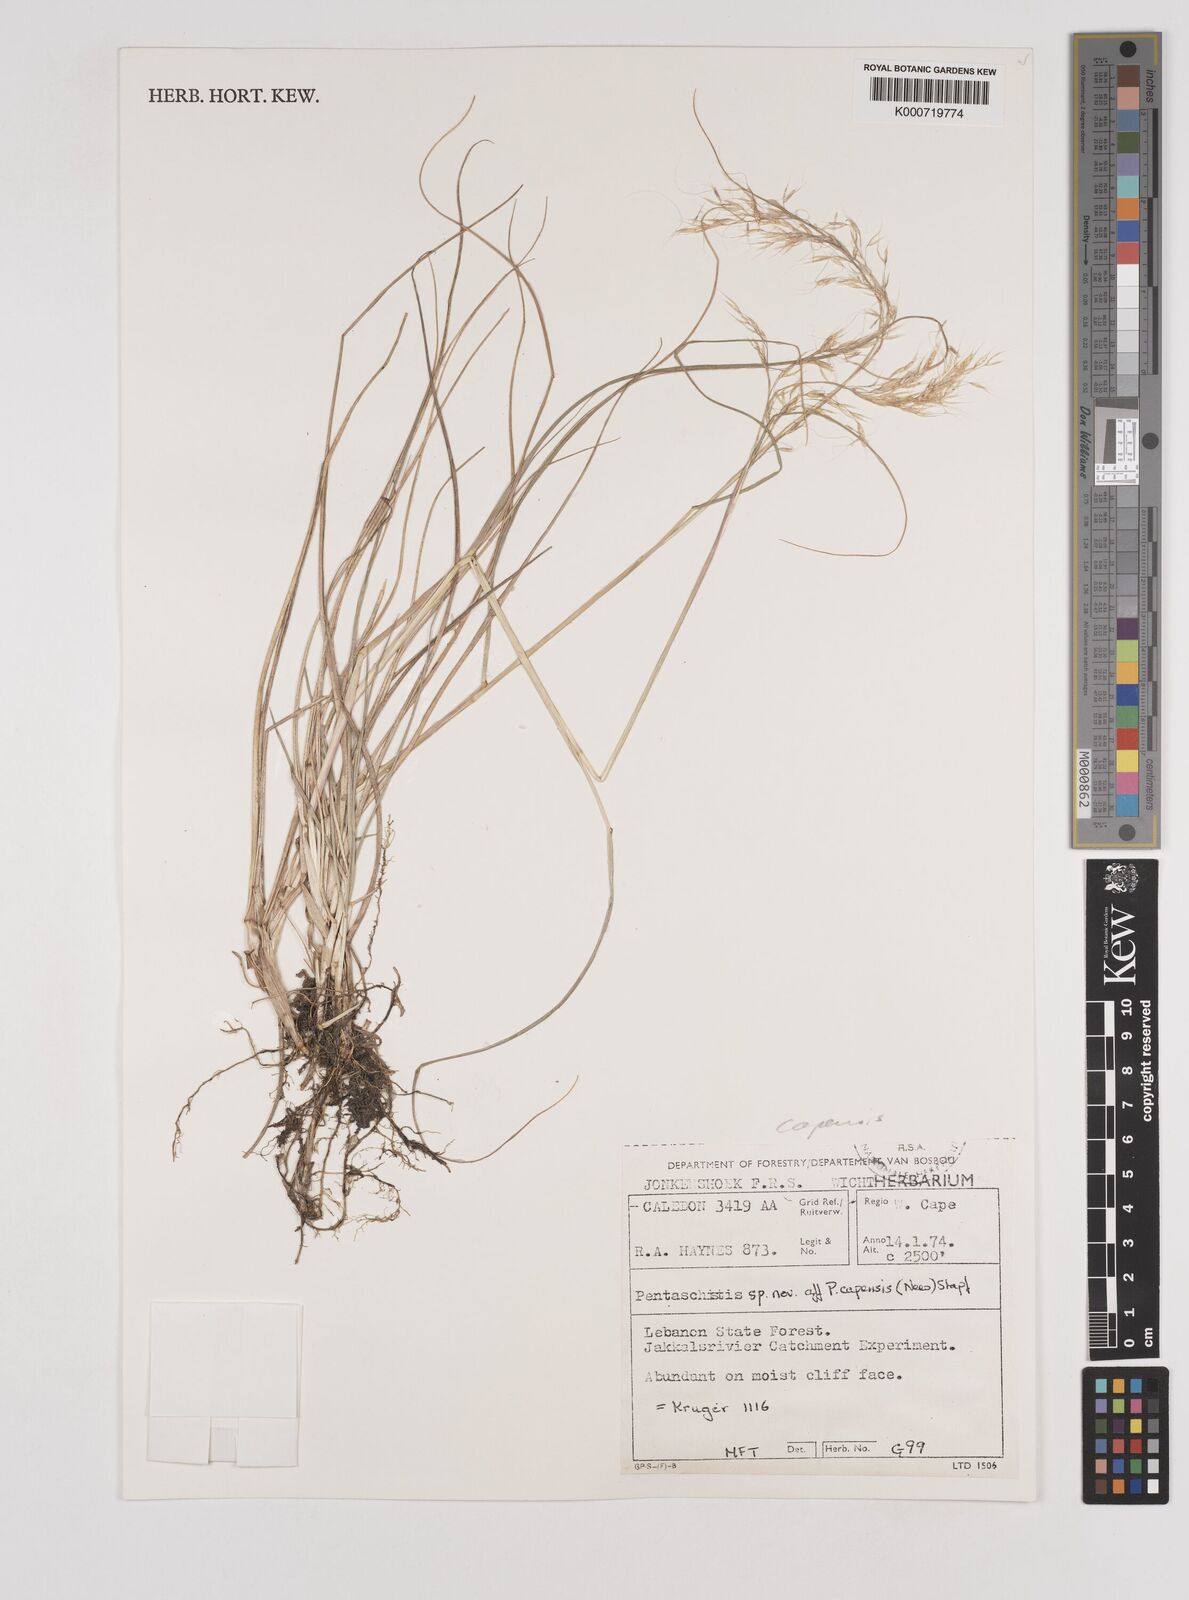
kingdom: Plantae
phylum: Tracheophyta
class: Liliopsida
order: Poales
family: Poaceae
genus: Pentameris
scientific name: Pentameris capensis
